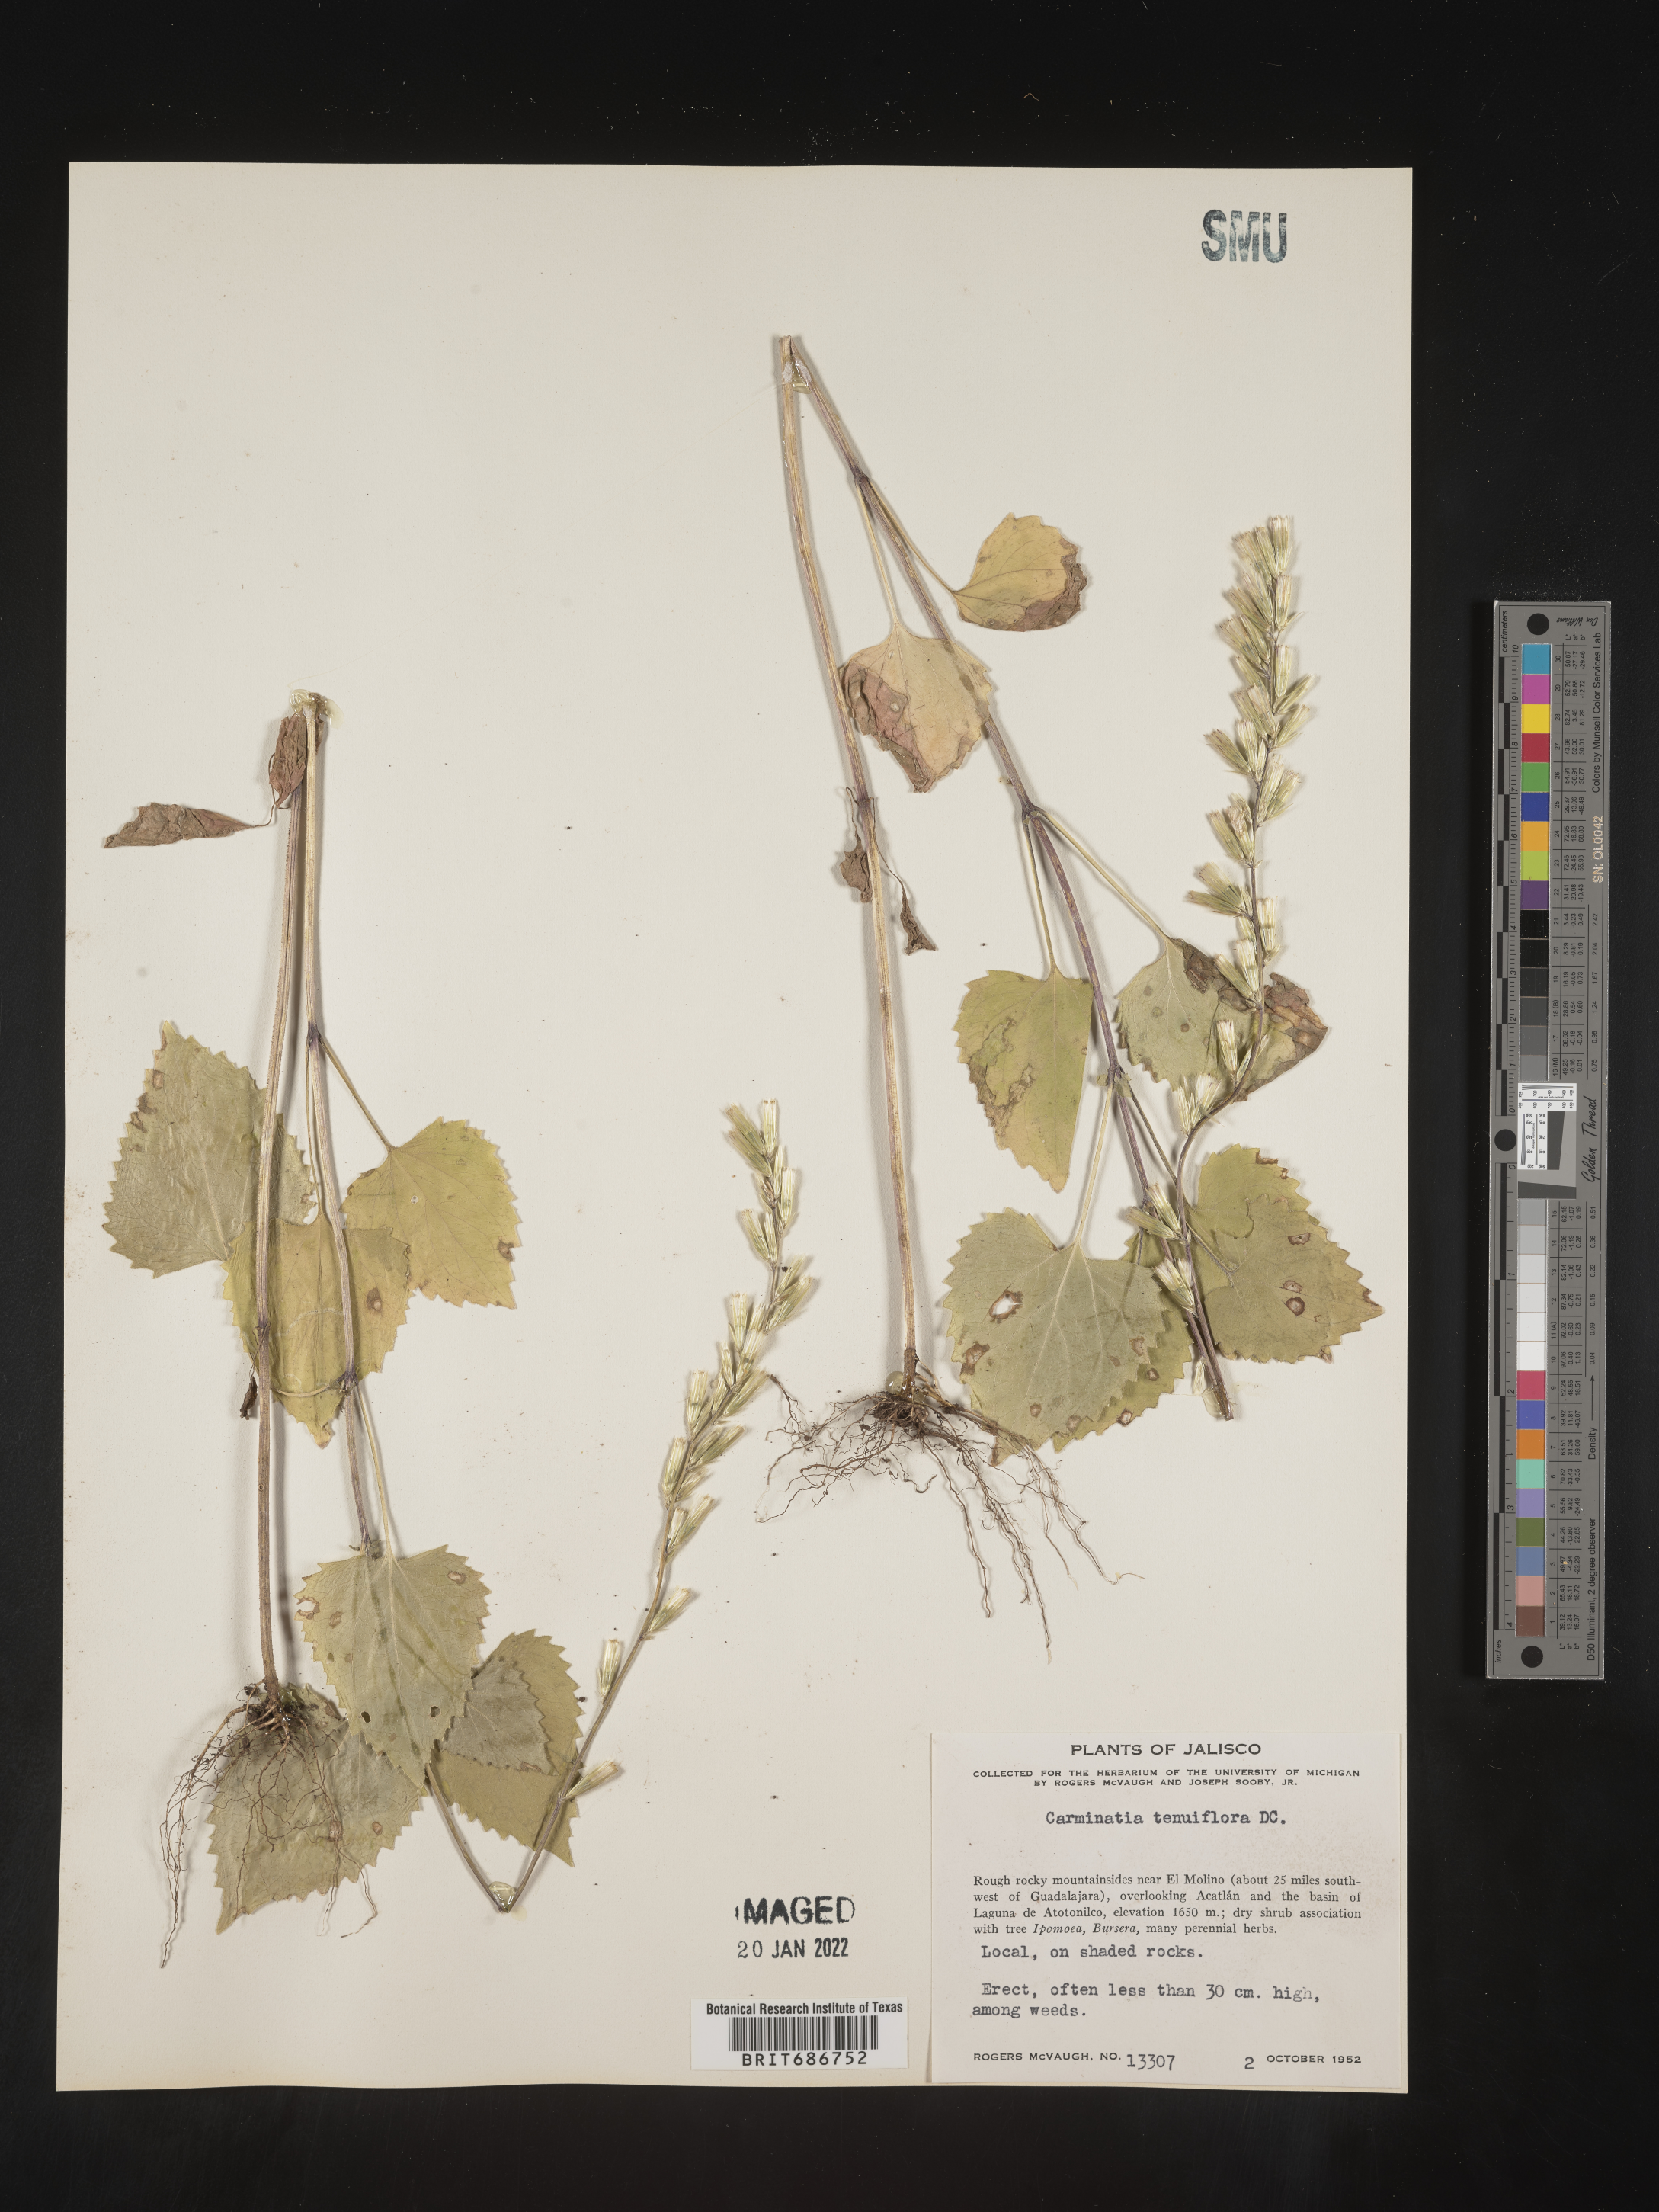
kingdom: Plantae
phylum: Tracheophyta
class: Magnoliopsida
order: Asterales
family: Asteraceae
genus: Carminatia
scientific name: Carminatia
